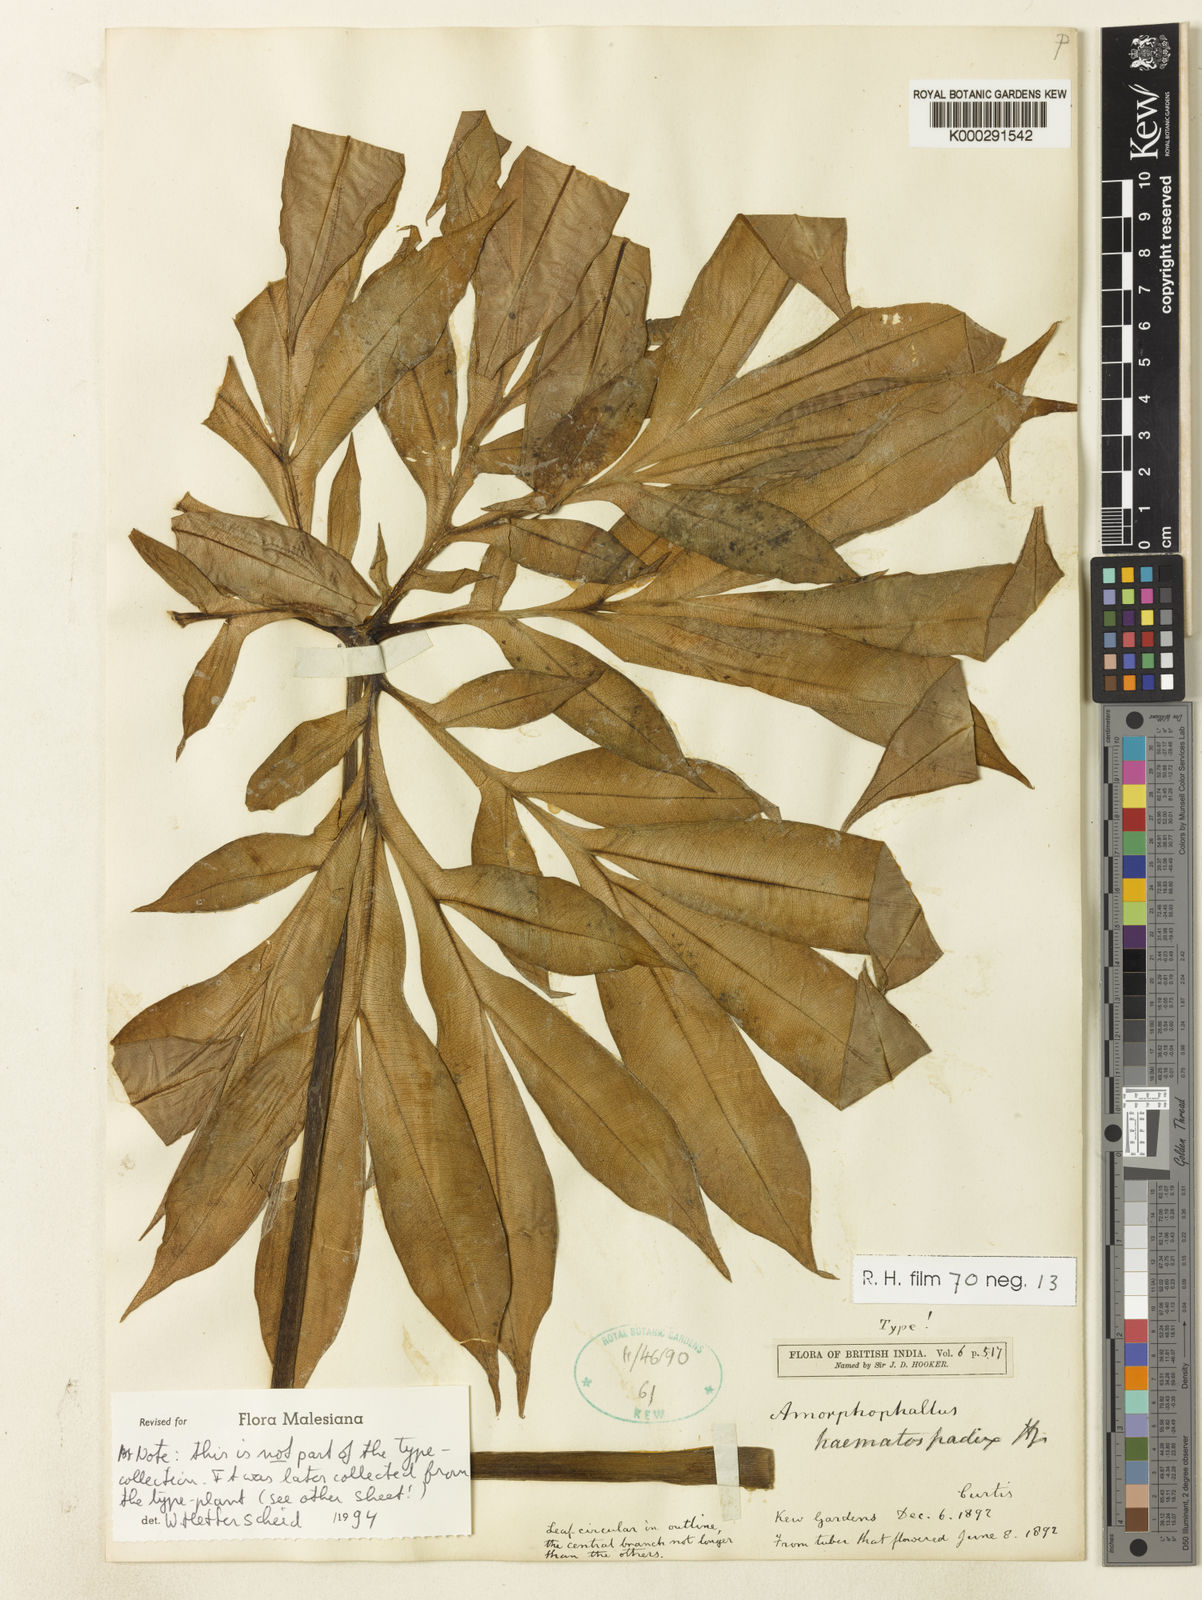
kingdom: Plantae
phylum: Tracheophyta
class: Liliopsida
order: Alismatales
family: Araceae
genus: Amorphophallus
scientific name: Amorphophallus haematospadix
